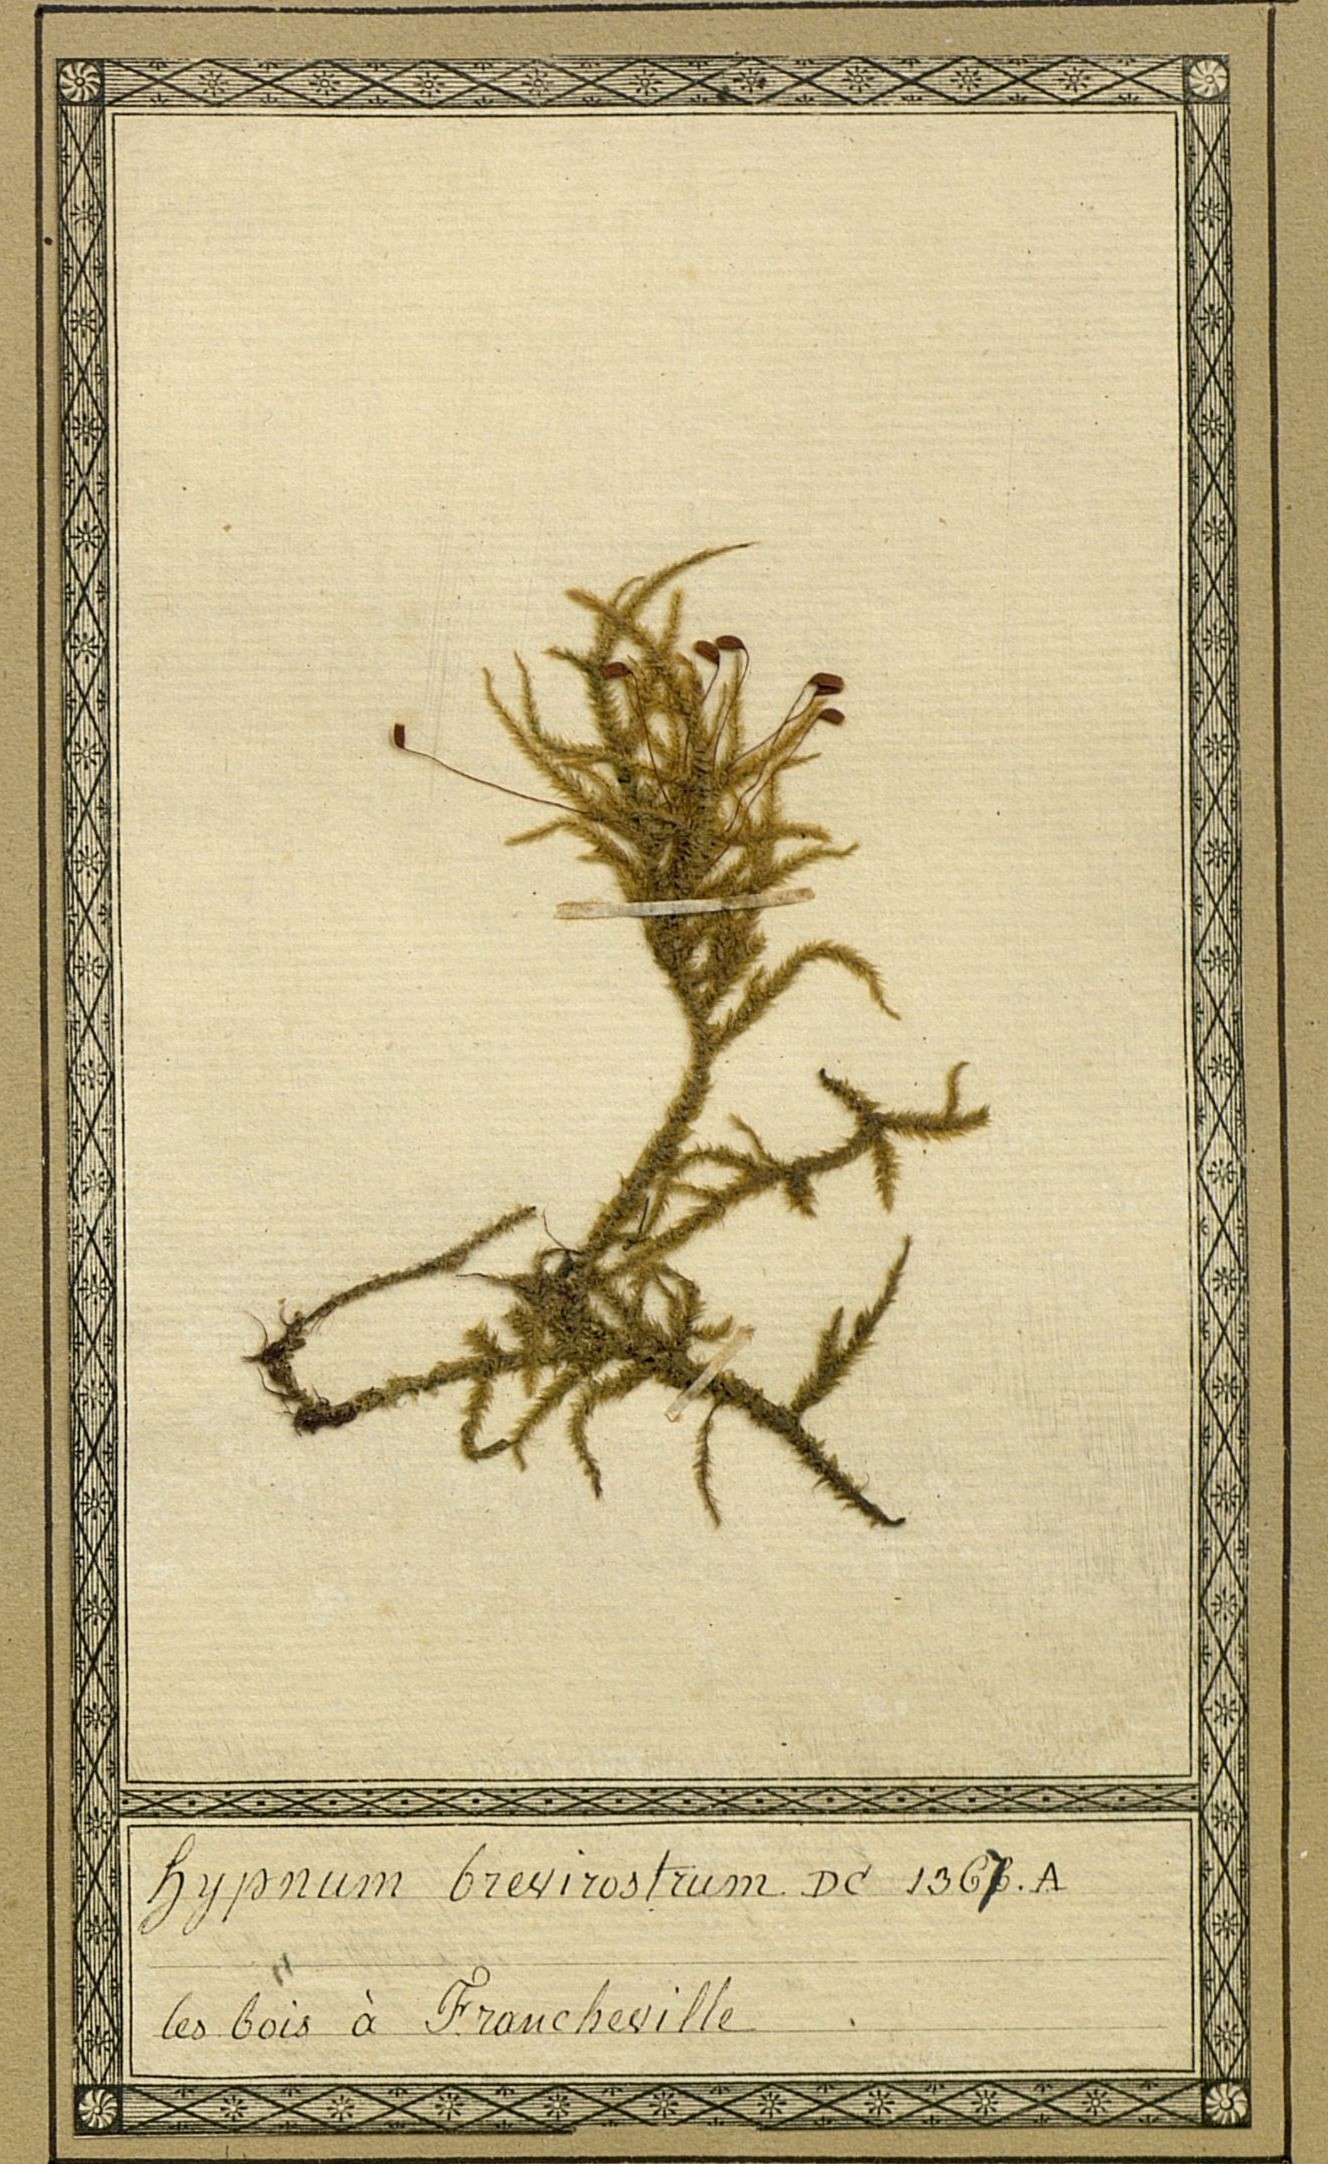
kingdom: Plantae
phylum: Bryophyta
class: Bryopsida
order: Hypnales
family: Hylocomiaceae
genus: Loeskeobryum
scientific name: Loeskeobryum brevirostre
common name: Short-beaked wood-moss
